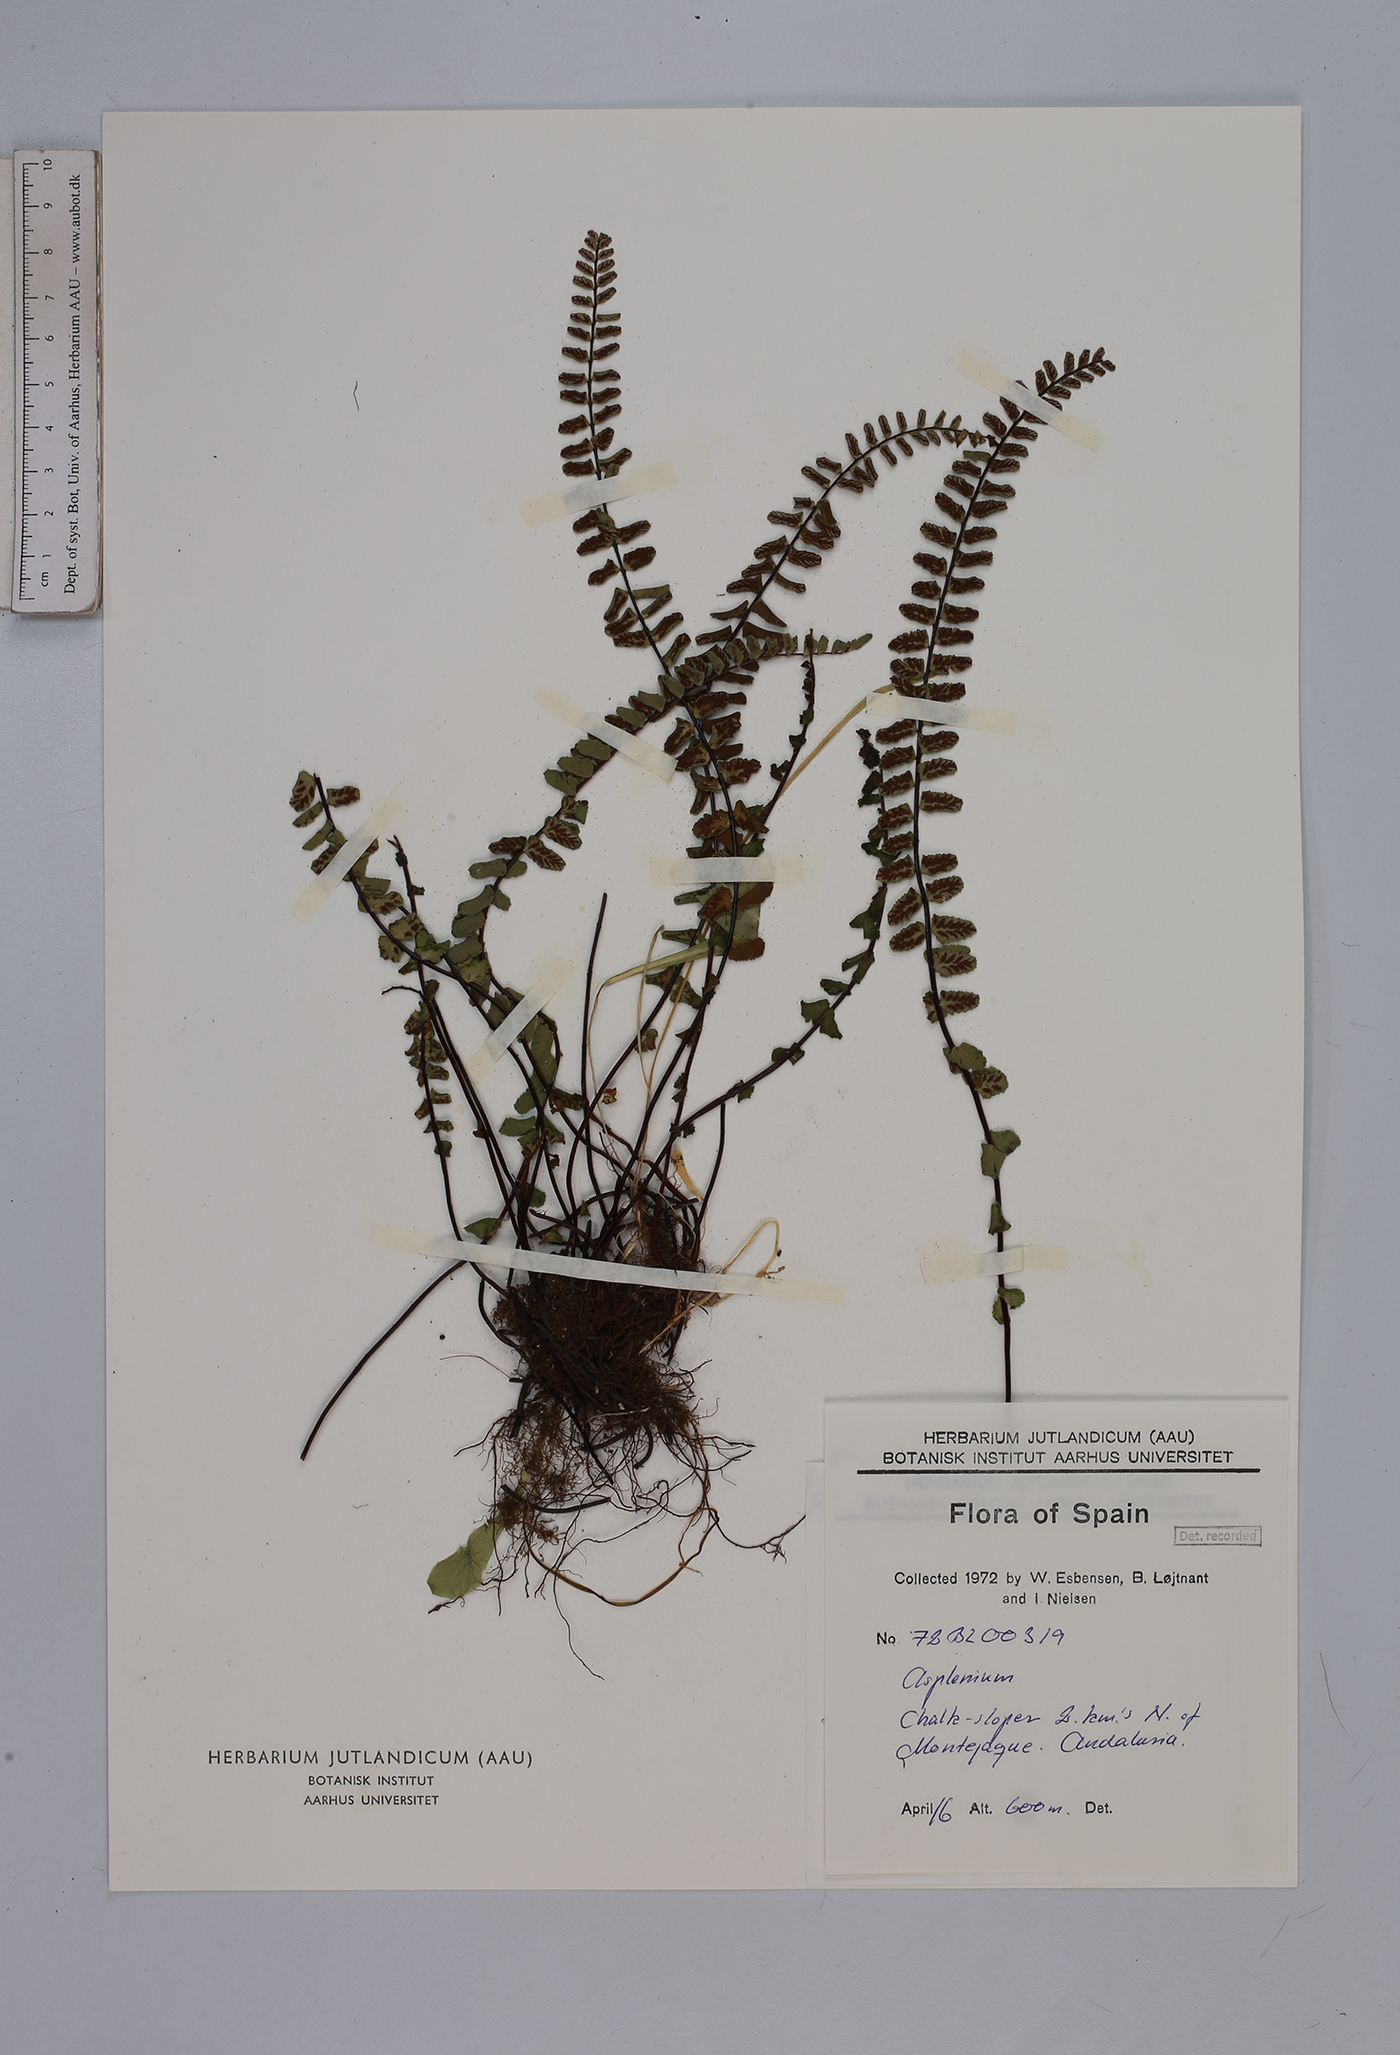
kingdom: Plantae
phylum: Tracheophyta
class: Polypodiopsida
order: Polypodiales
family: Aspleniaceae
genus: Asplenium
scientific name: Asplenium trichomanes
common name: Maidenhair spleenwort
